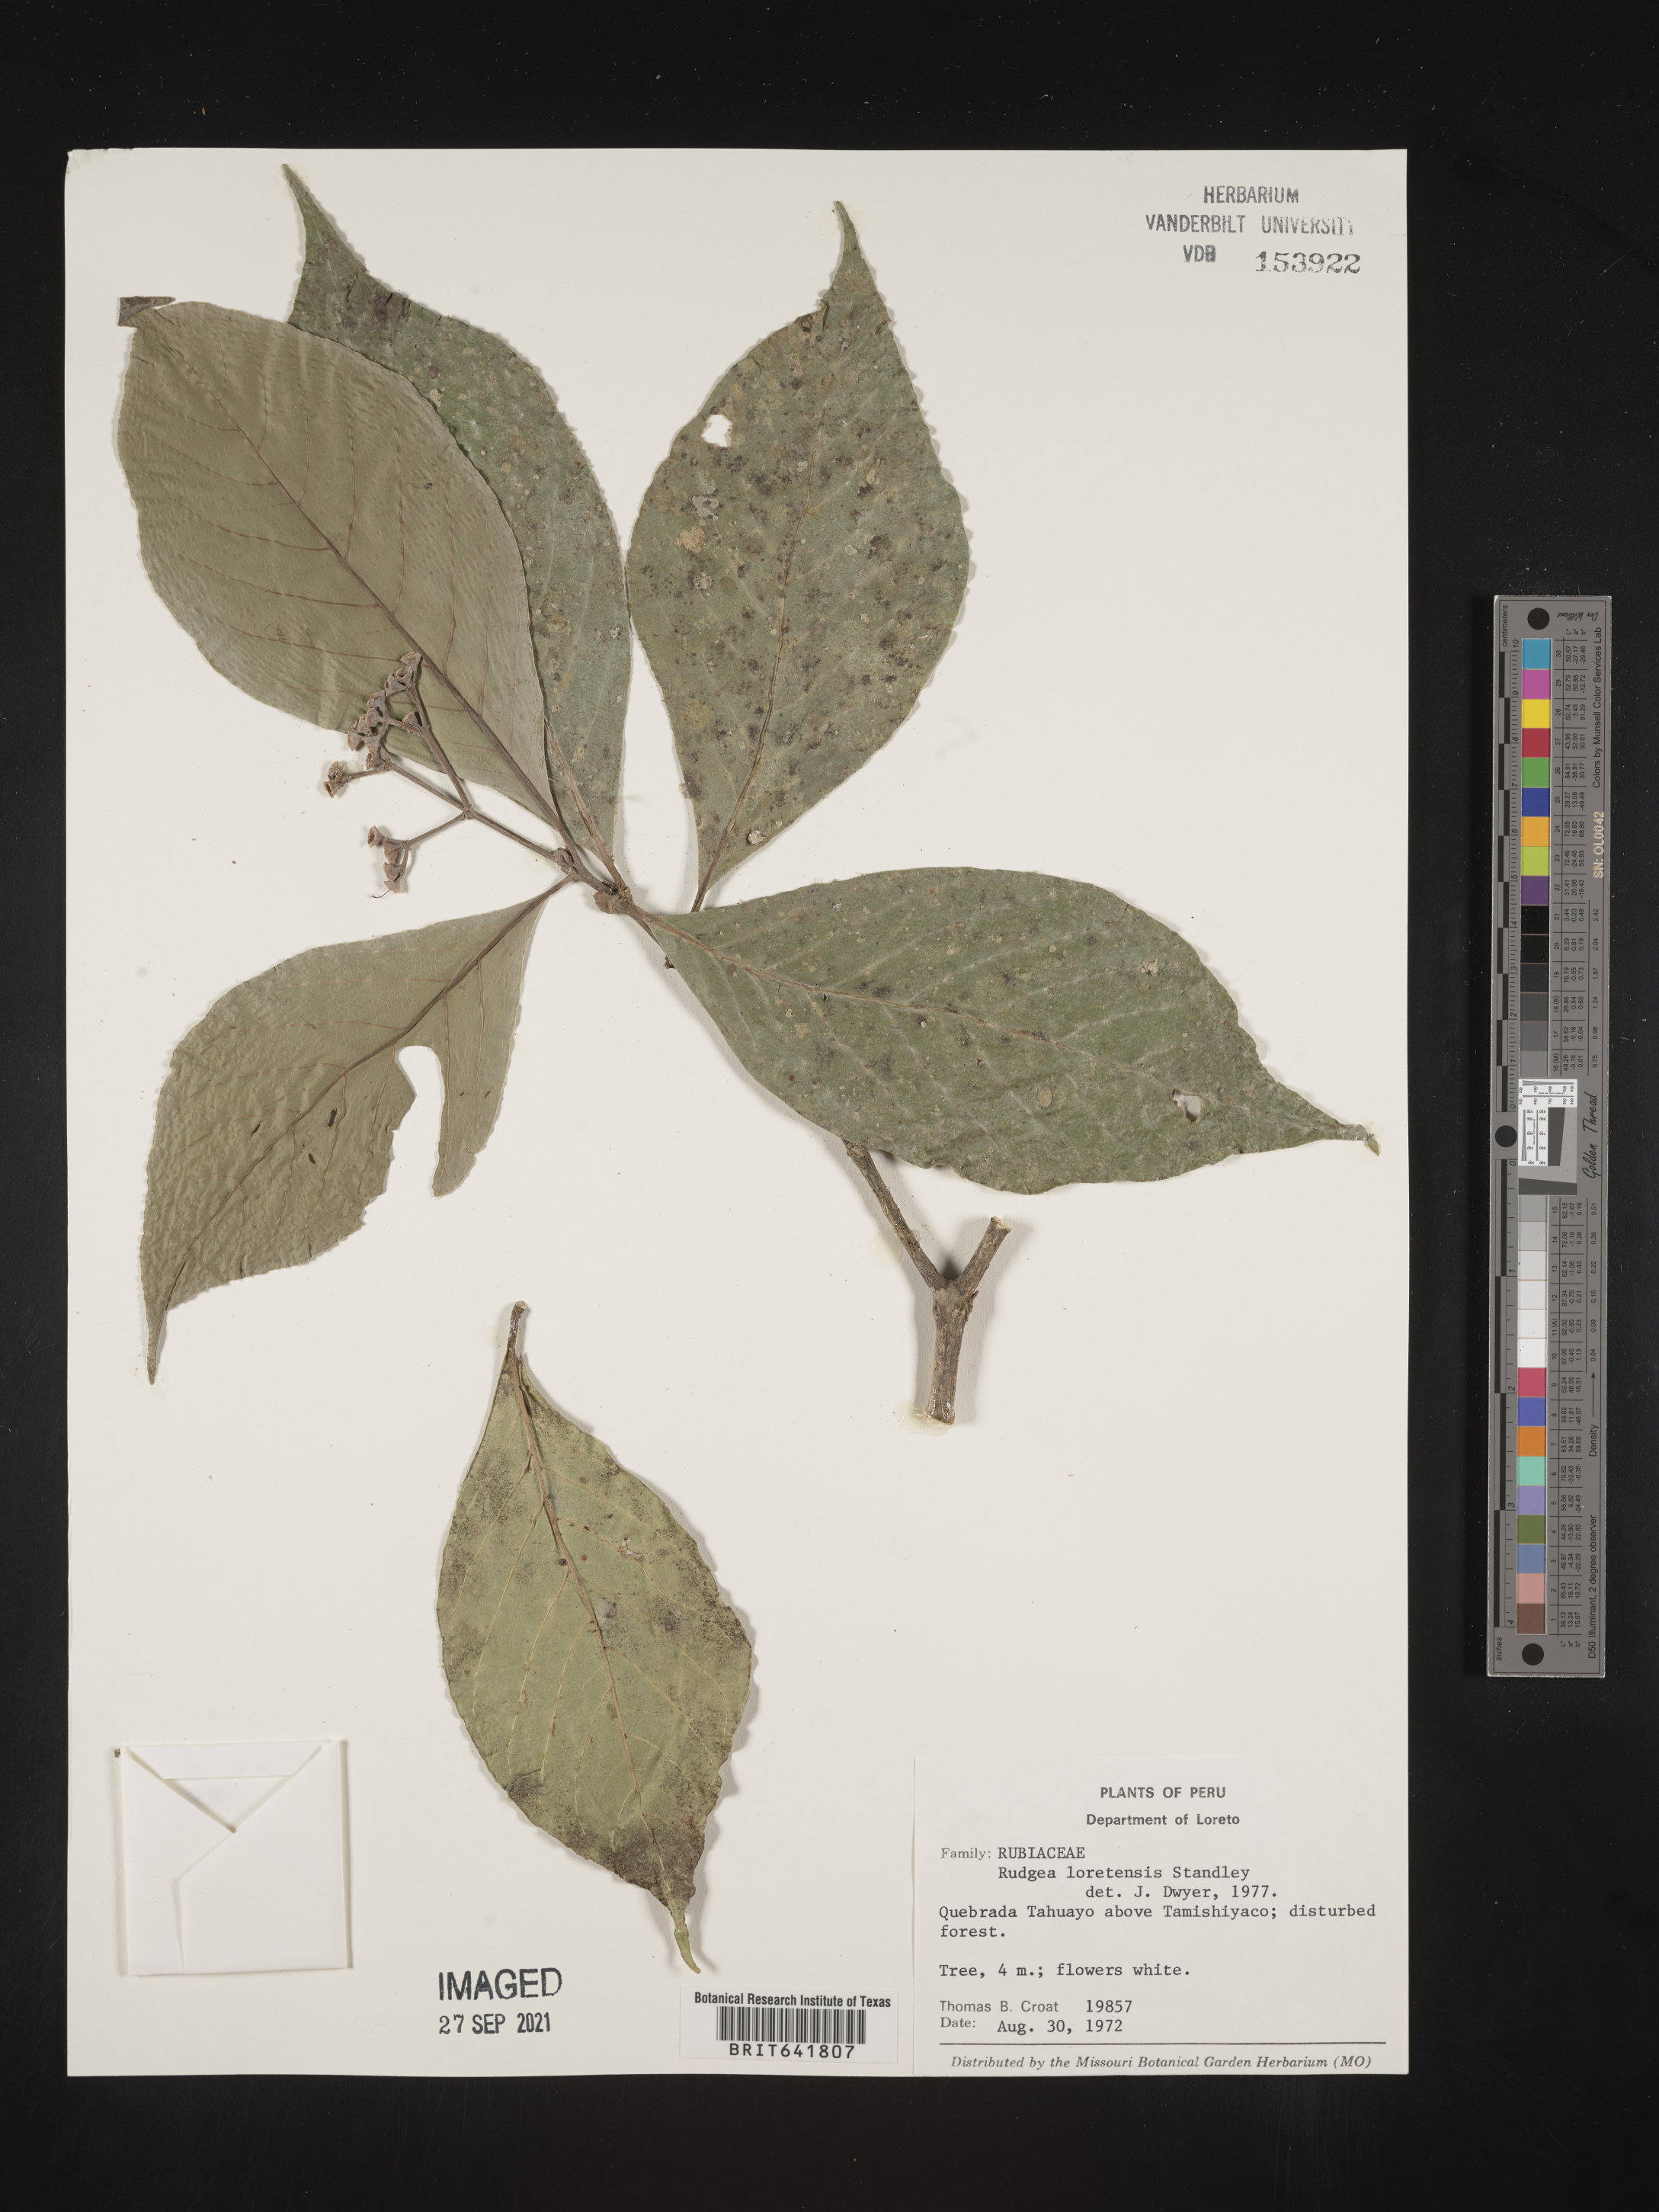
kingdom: Plantae
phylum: Tracheophyta
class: Magnoliopsida
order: Gentianales
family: Rubiaceae
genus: Rudgea
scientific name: Rudgea
